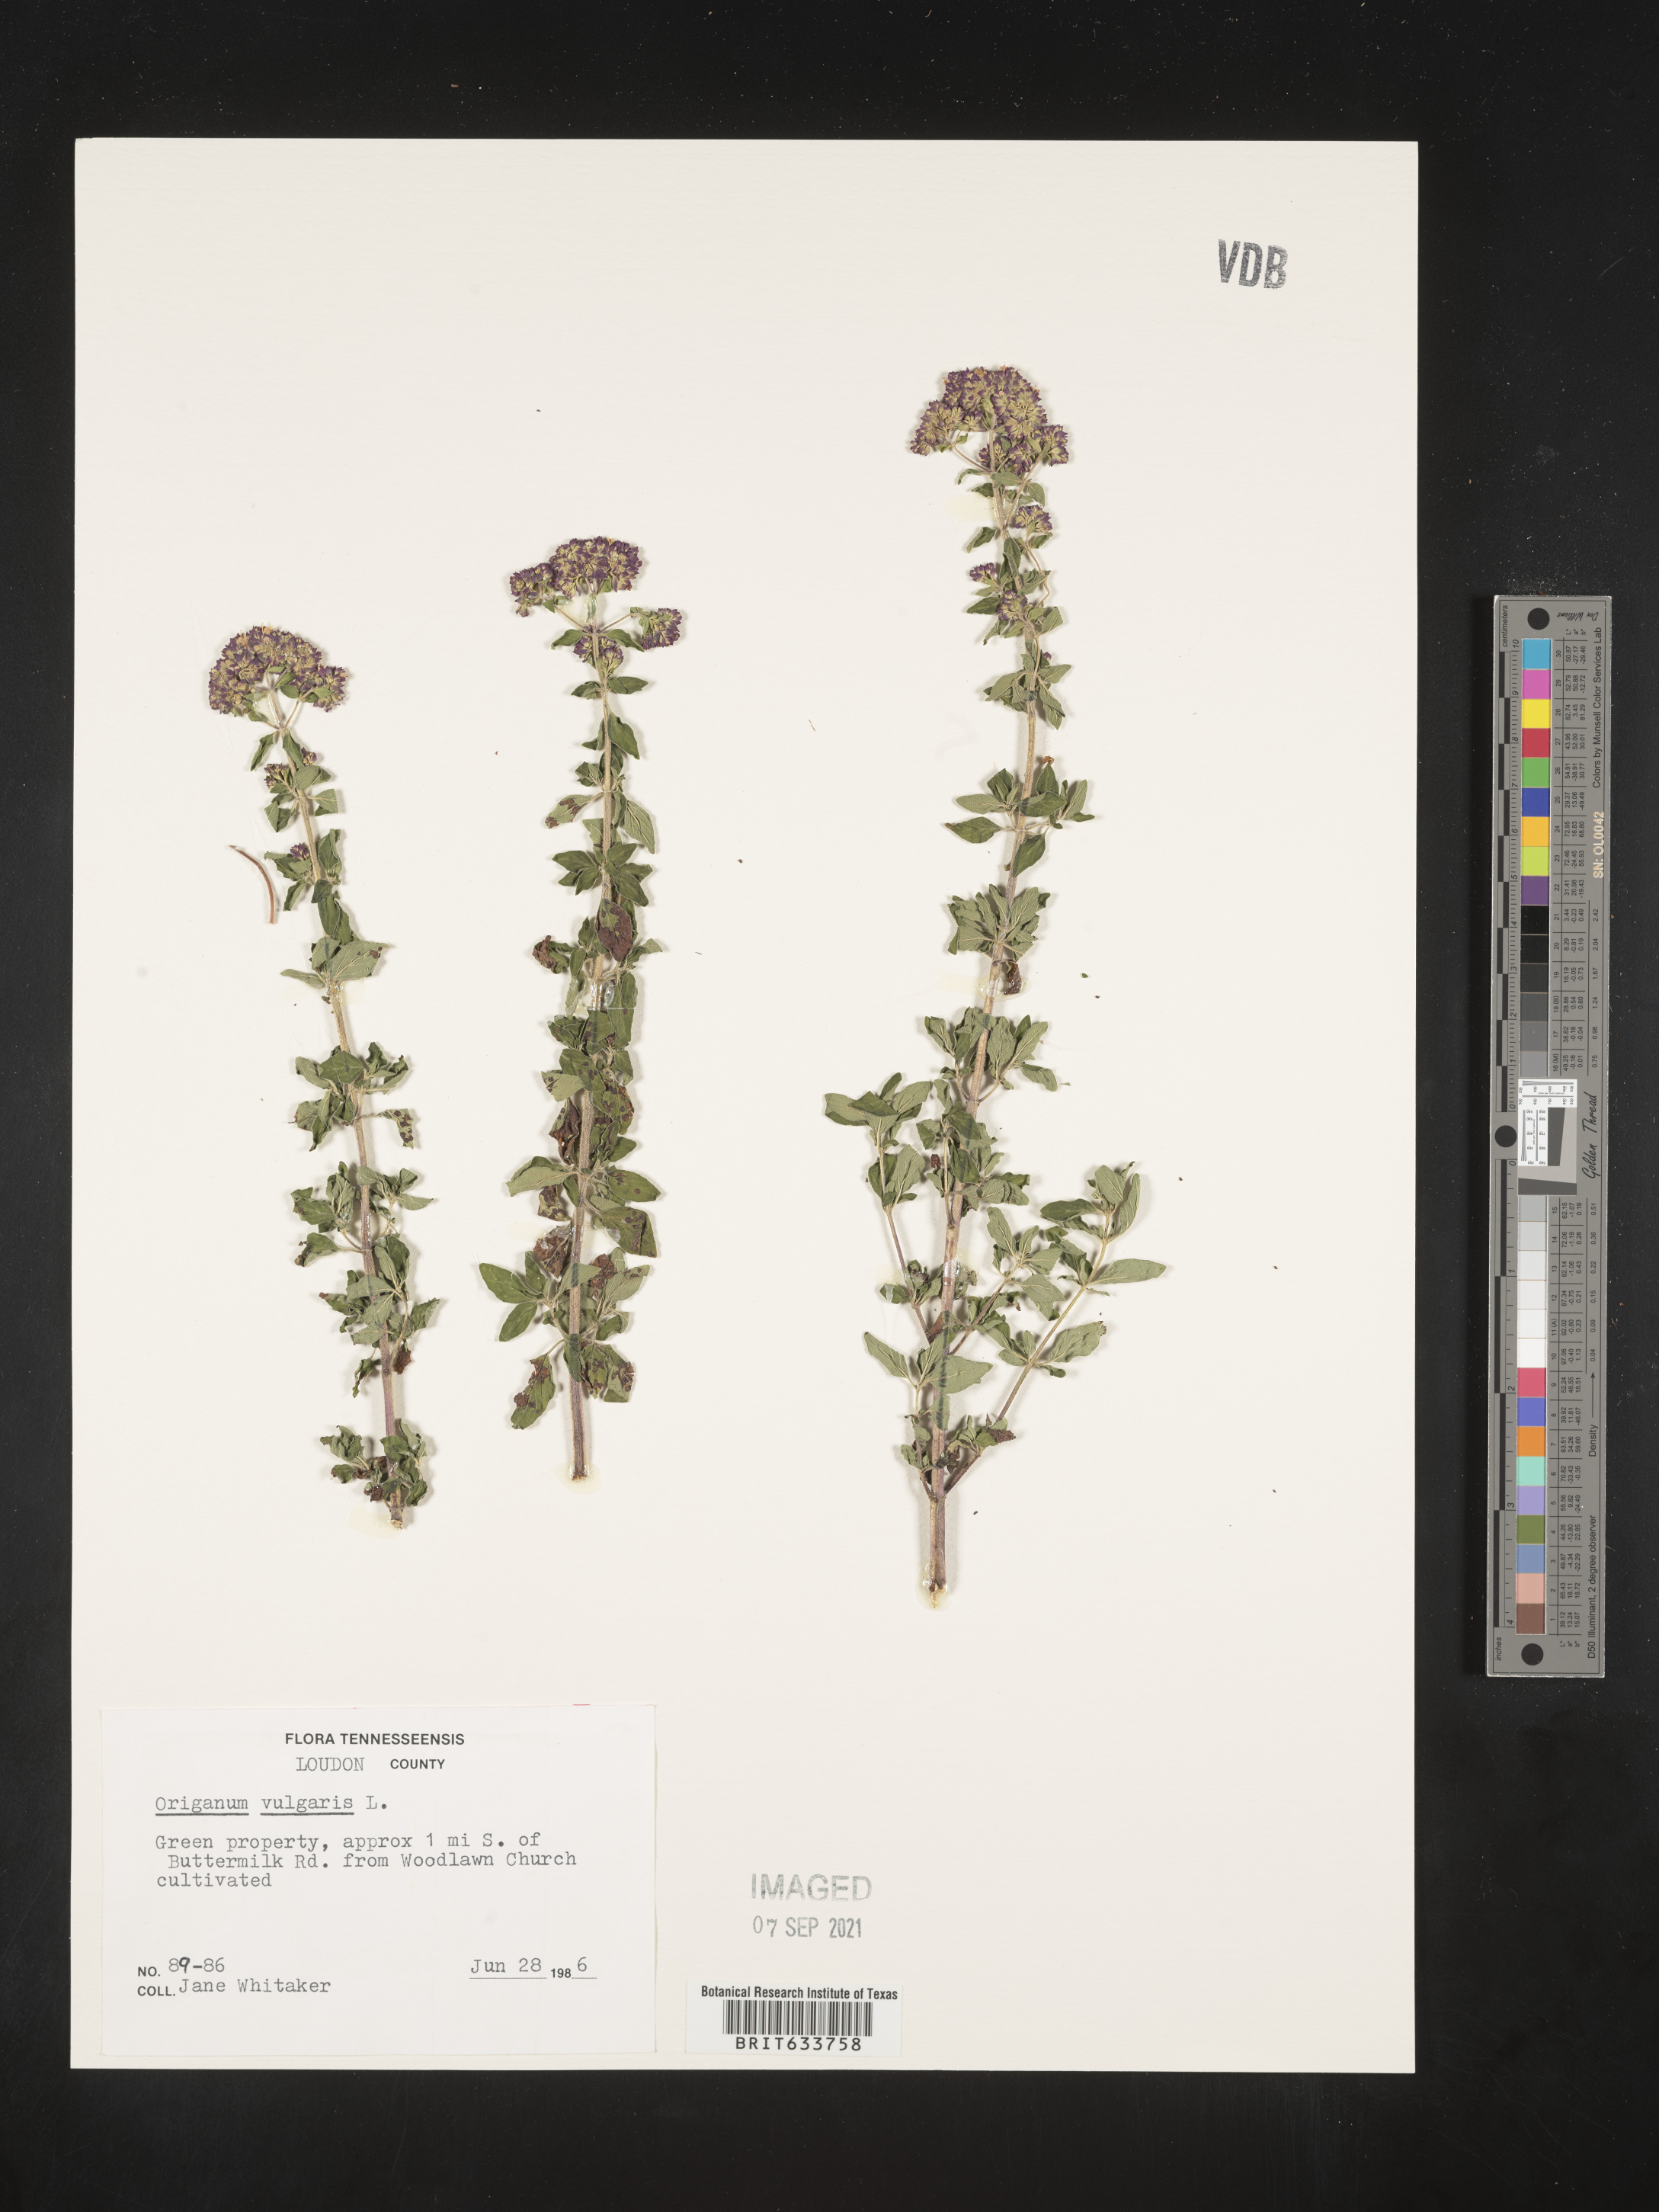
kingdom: Plantae
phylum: Tracheophyta
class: Magnoliopsida
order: Lamiales
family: Lamiaceae
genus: Origanum
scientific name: Origanum
